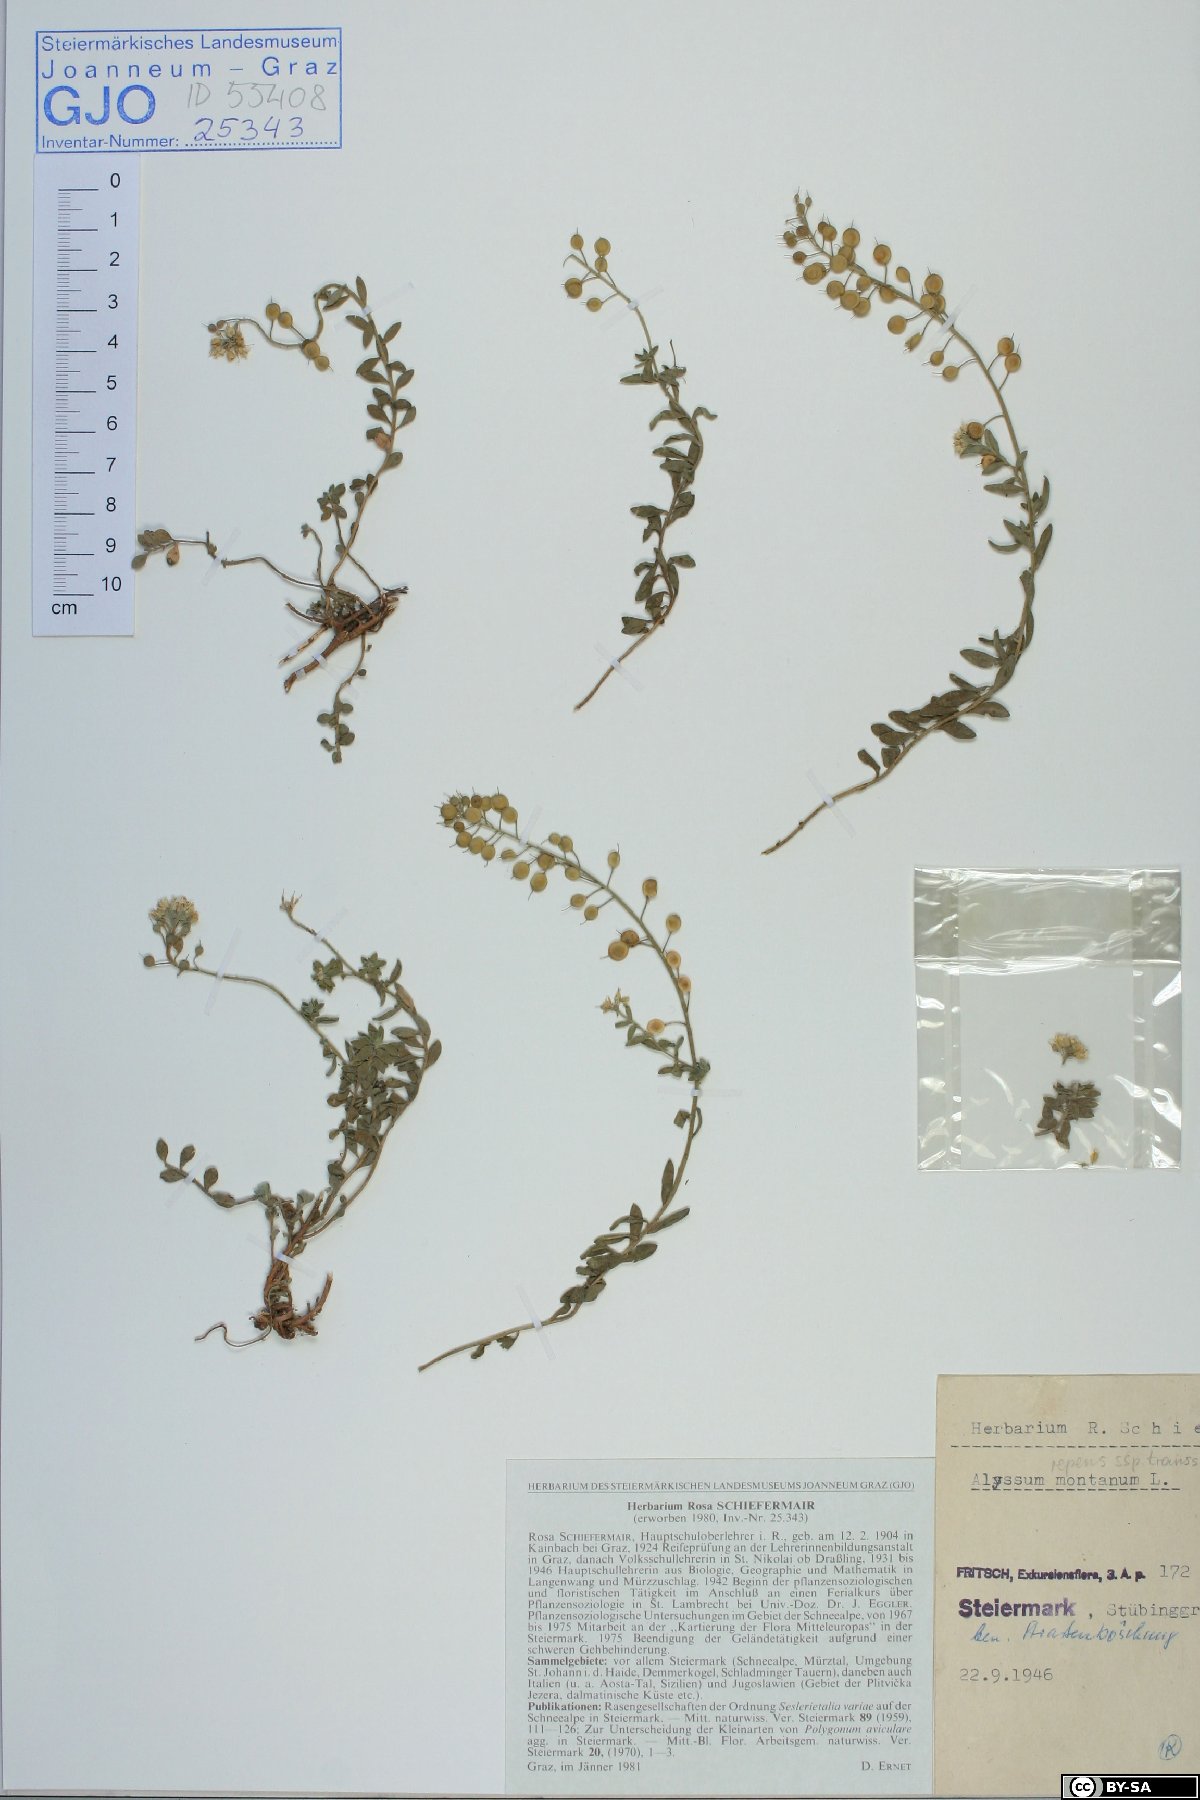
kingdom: Plantae
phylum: Tracheophyta
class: Magnoliopsida
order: Brassicales
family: Brassicaceae
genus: Alyssum
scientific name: Alyssum repens
